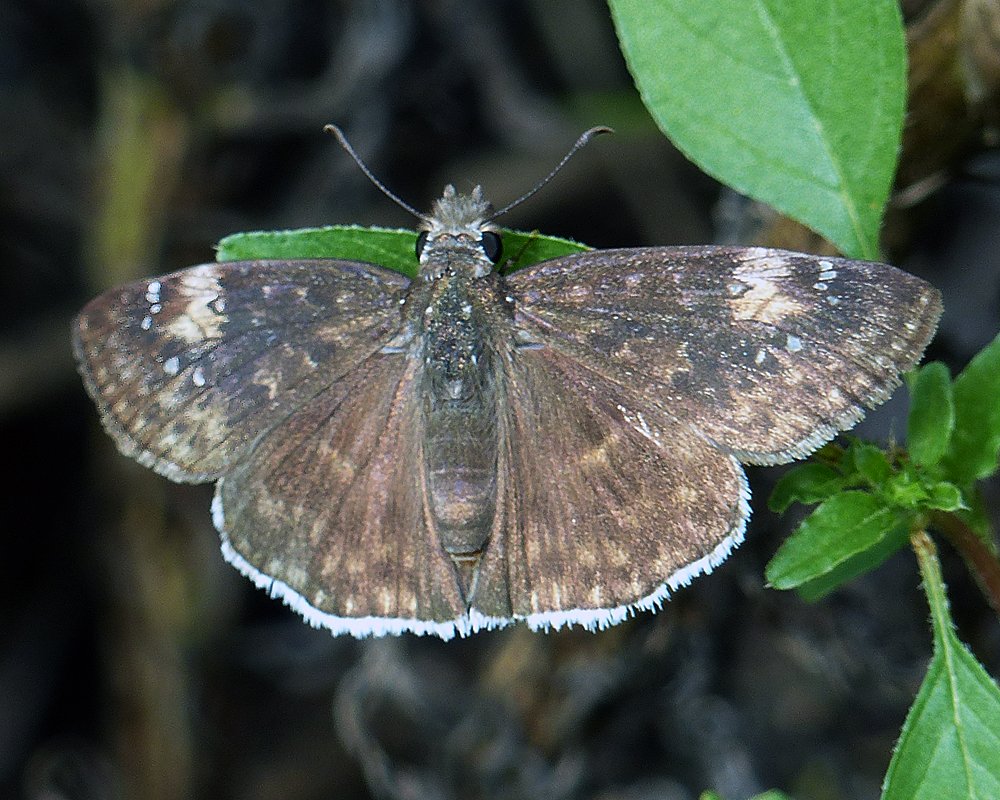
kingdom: Animalia
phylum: Arthropoda
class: Insecta
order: Lepidoptera
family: Hesperiidae
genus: Erynnis
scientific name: Erynnis funeralis
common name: Funereal Duskywing
